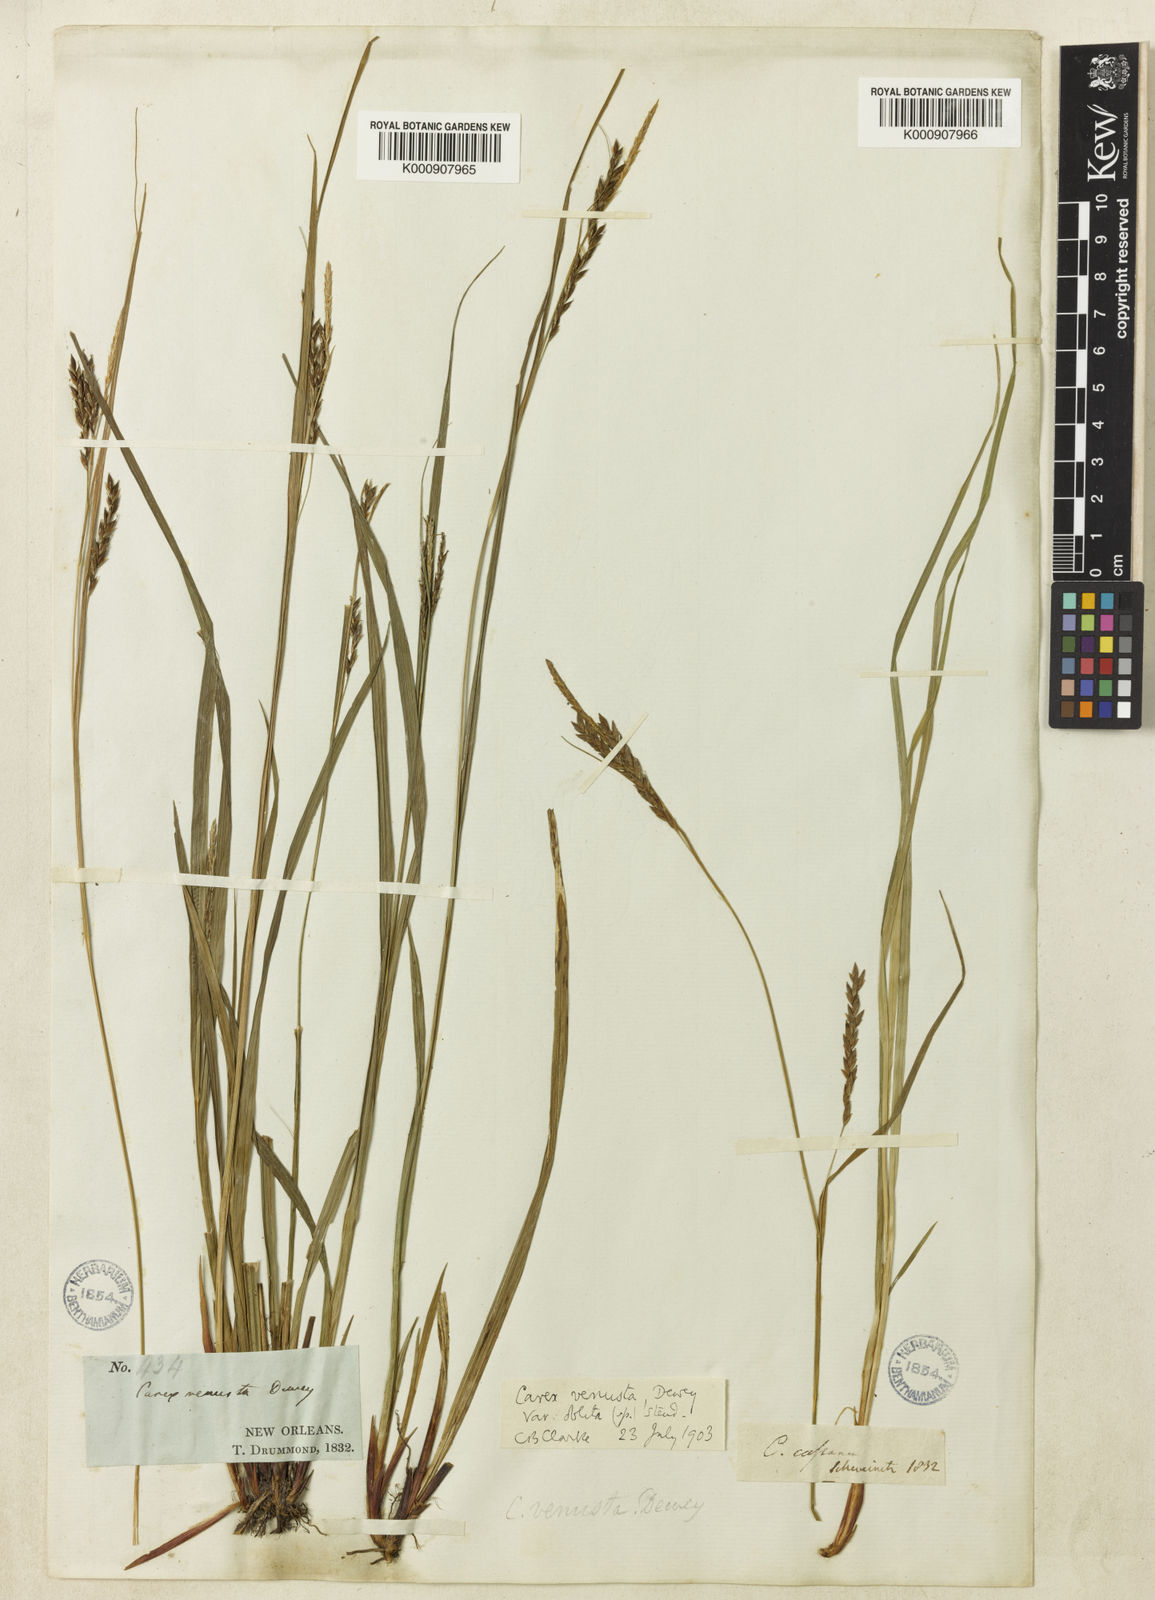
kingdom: Plantae
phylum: Tracheophyta
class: Liliopsida
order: Poales
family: Cyperaceae
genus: Carex
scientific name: Carex venusta
